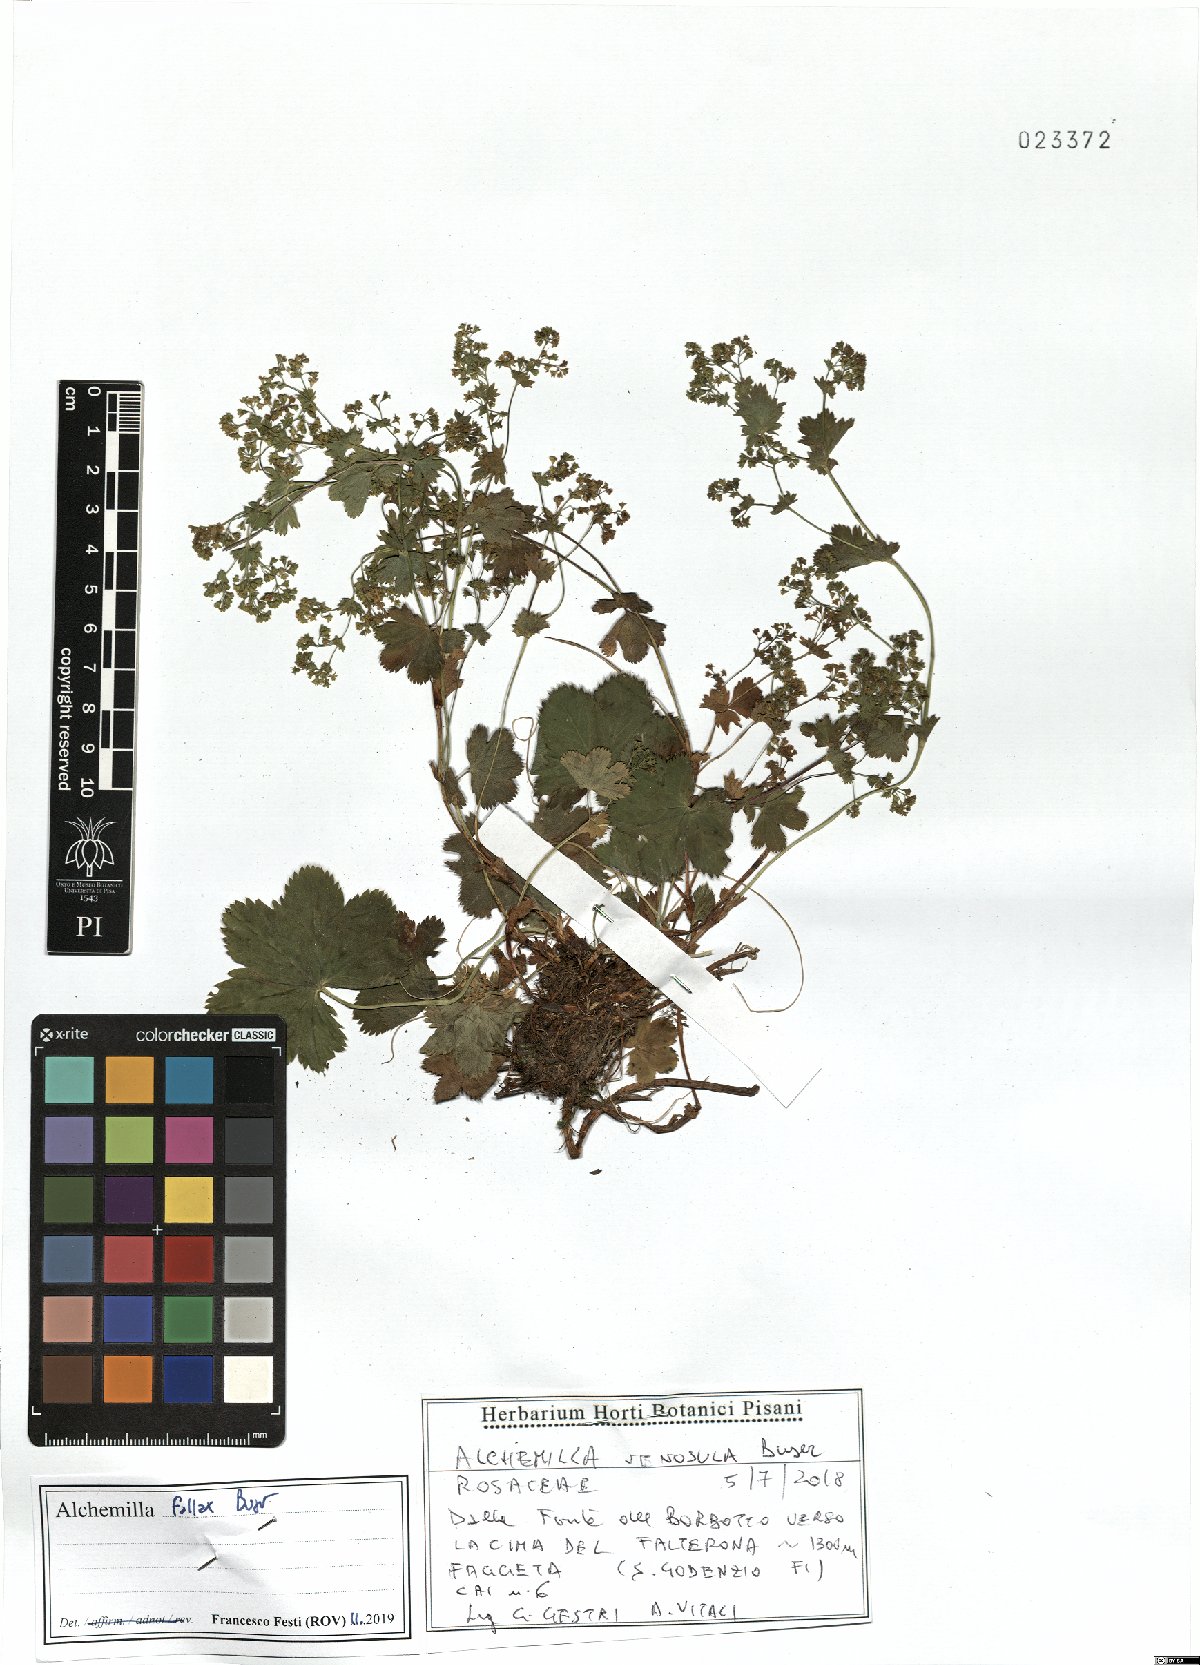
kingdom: Plantae
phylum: Tracheophyta
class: Magnoliopsida
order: Rosales
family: Rosaceae
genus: Alchemilla
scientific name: Alchemilla fallax
